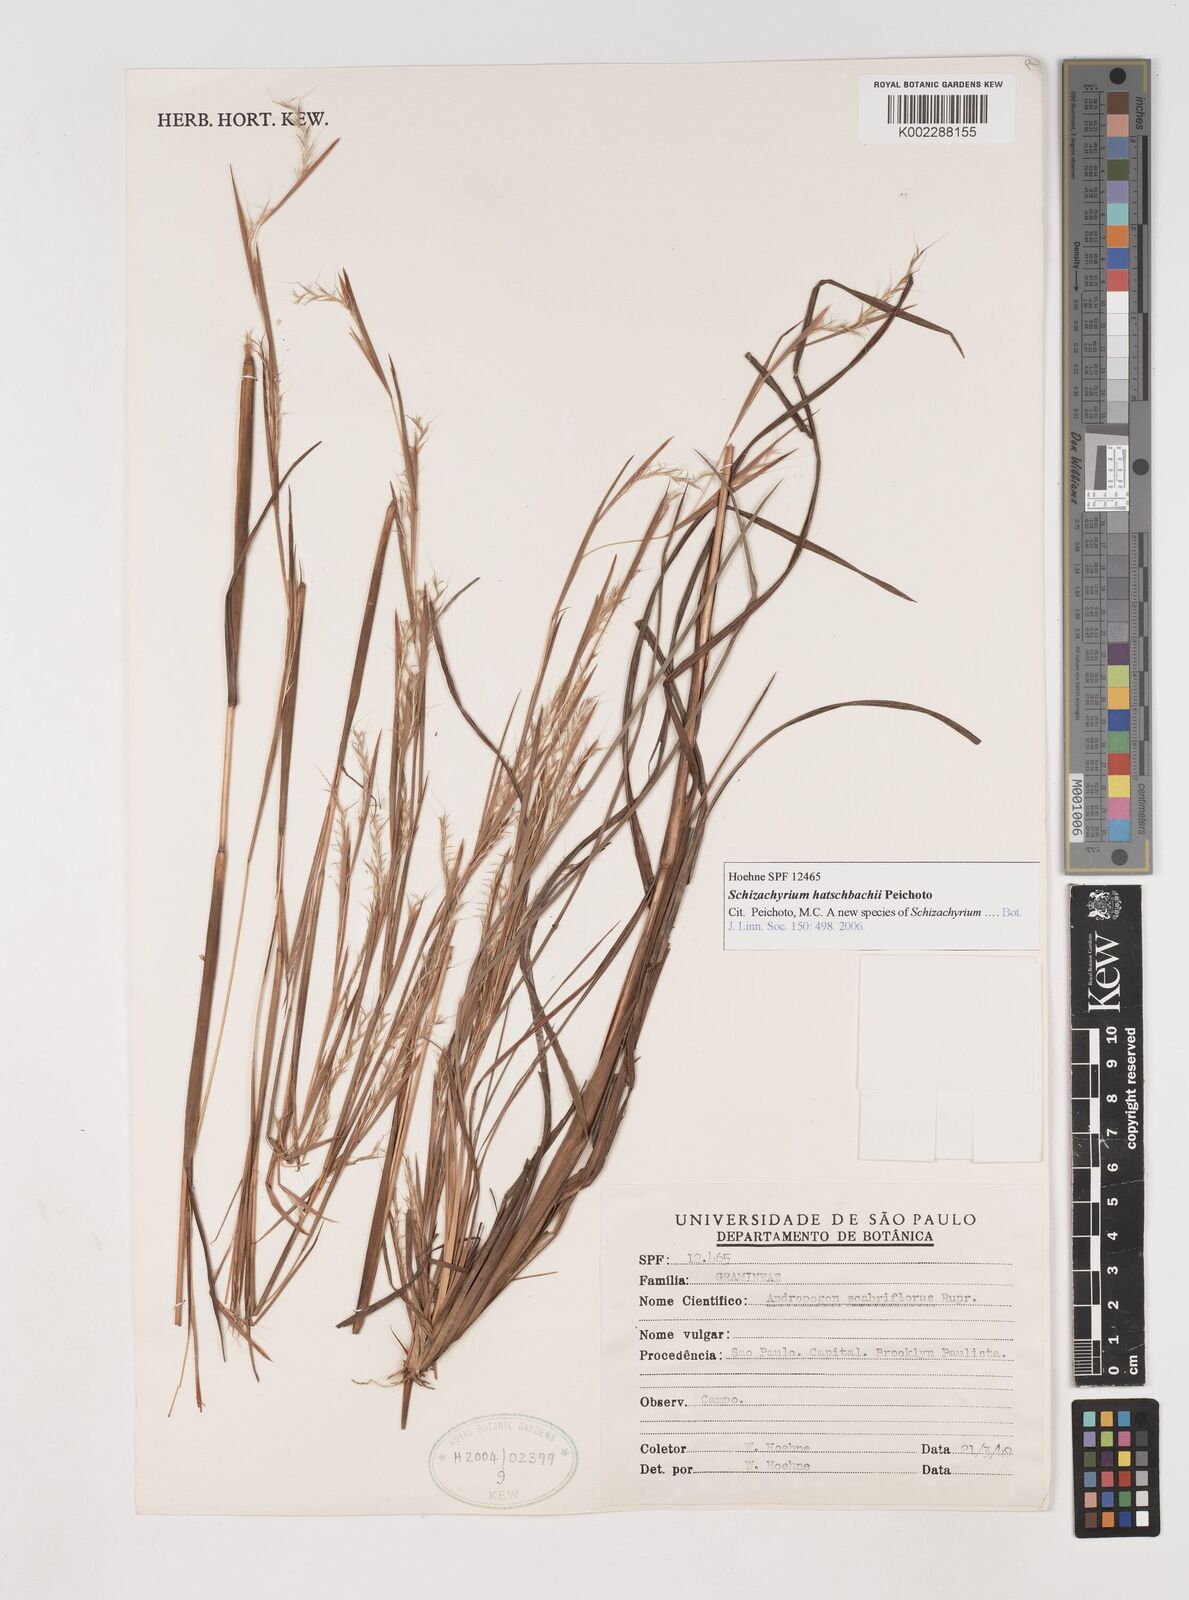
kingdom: Plantae
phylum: Tracheophyta
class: Liliopsida
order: Poales
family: Poaceae
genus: Schizachyrium
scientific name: Schizachyrium hatschbachii
